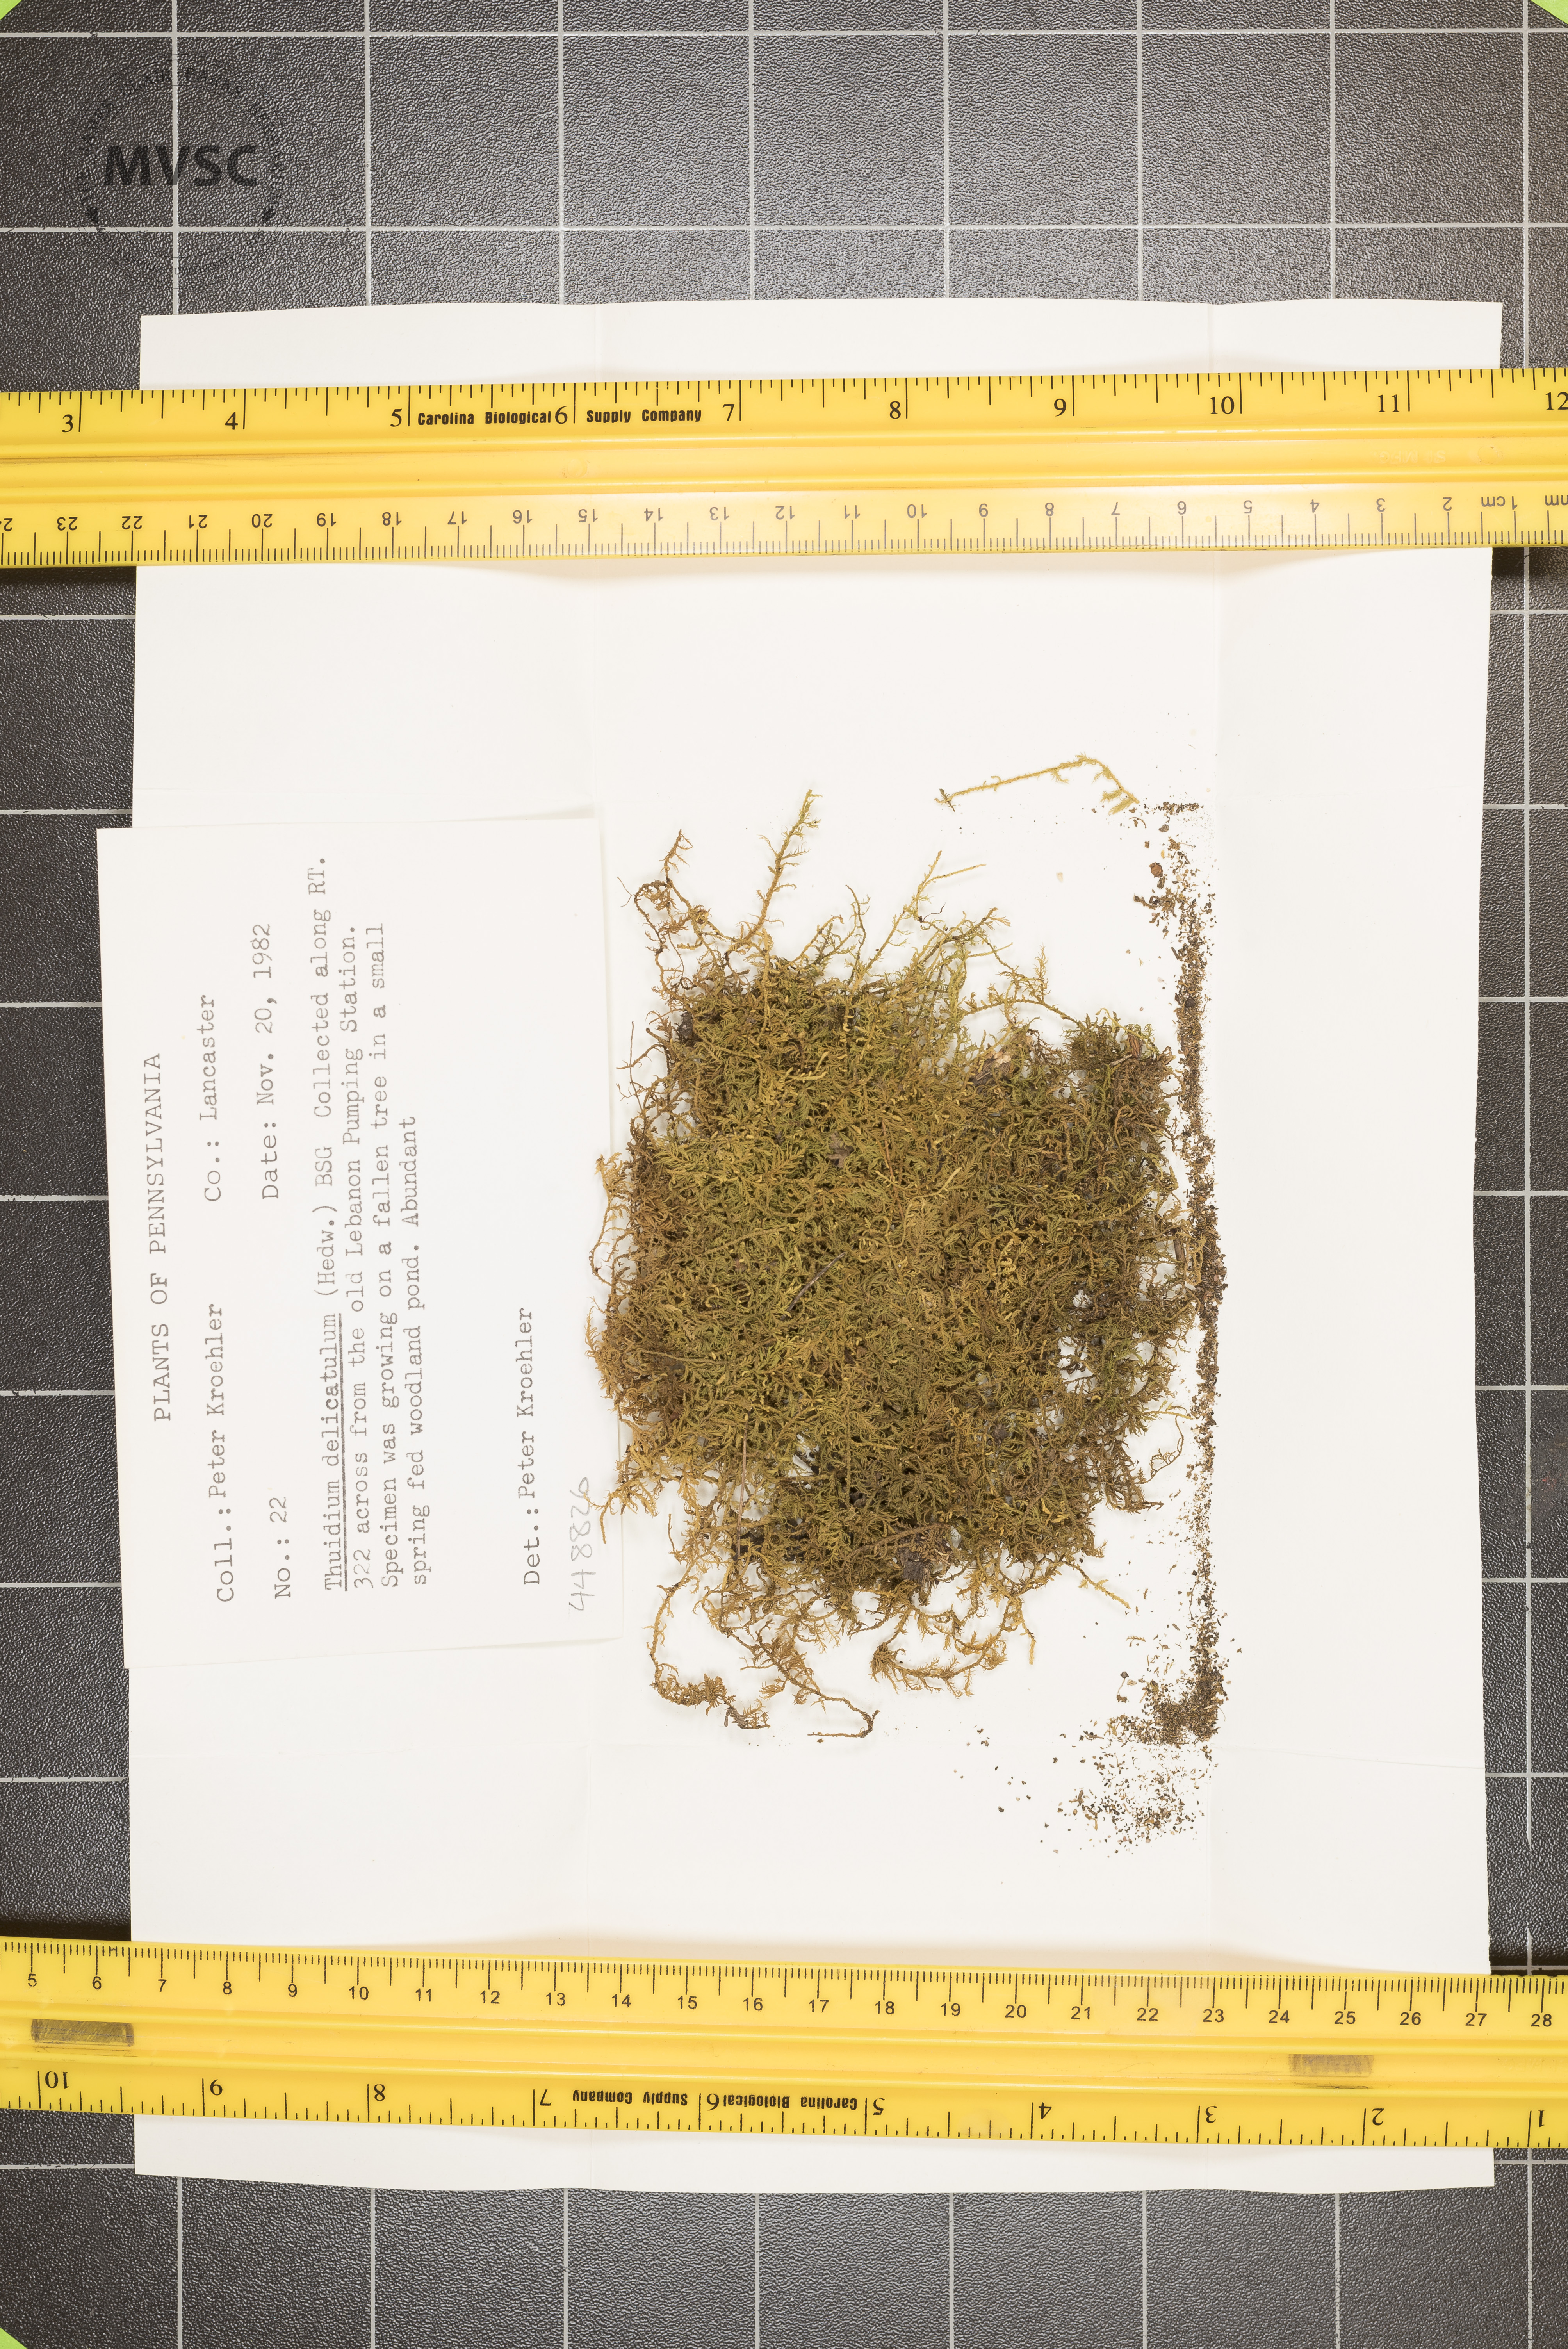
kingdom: Plantae
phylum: Bryophyta
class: Bryopsida
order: Hypnales
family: Thuidiaceae
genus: Thuidium
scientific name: Thuidium delicatulum
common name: Delicate fern moss
